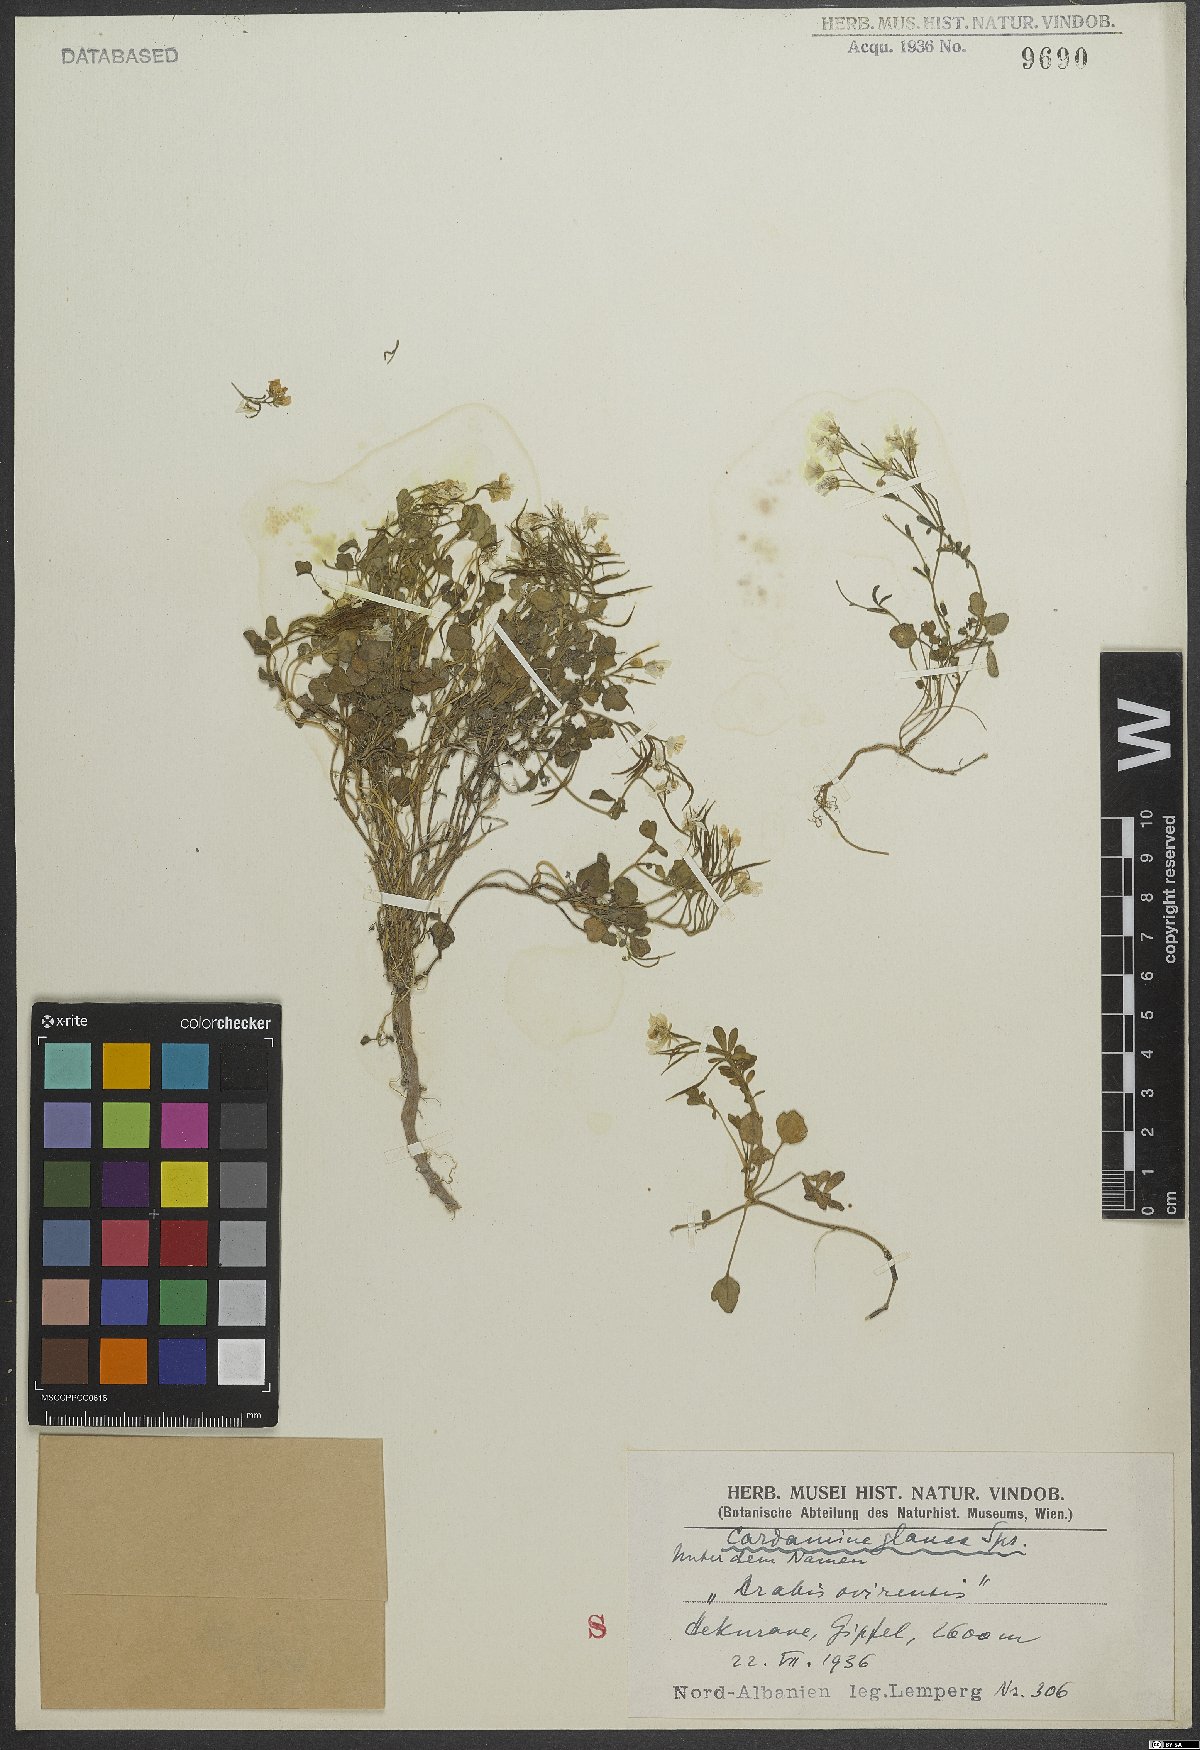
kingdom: Plantae
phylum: Tracheophyta
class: Magnoliopsida
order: Brassicales
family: Brassicaceae
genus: Cardamine
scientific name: Cardamine glauca
